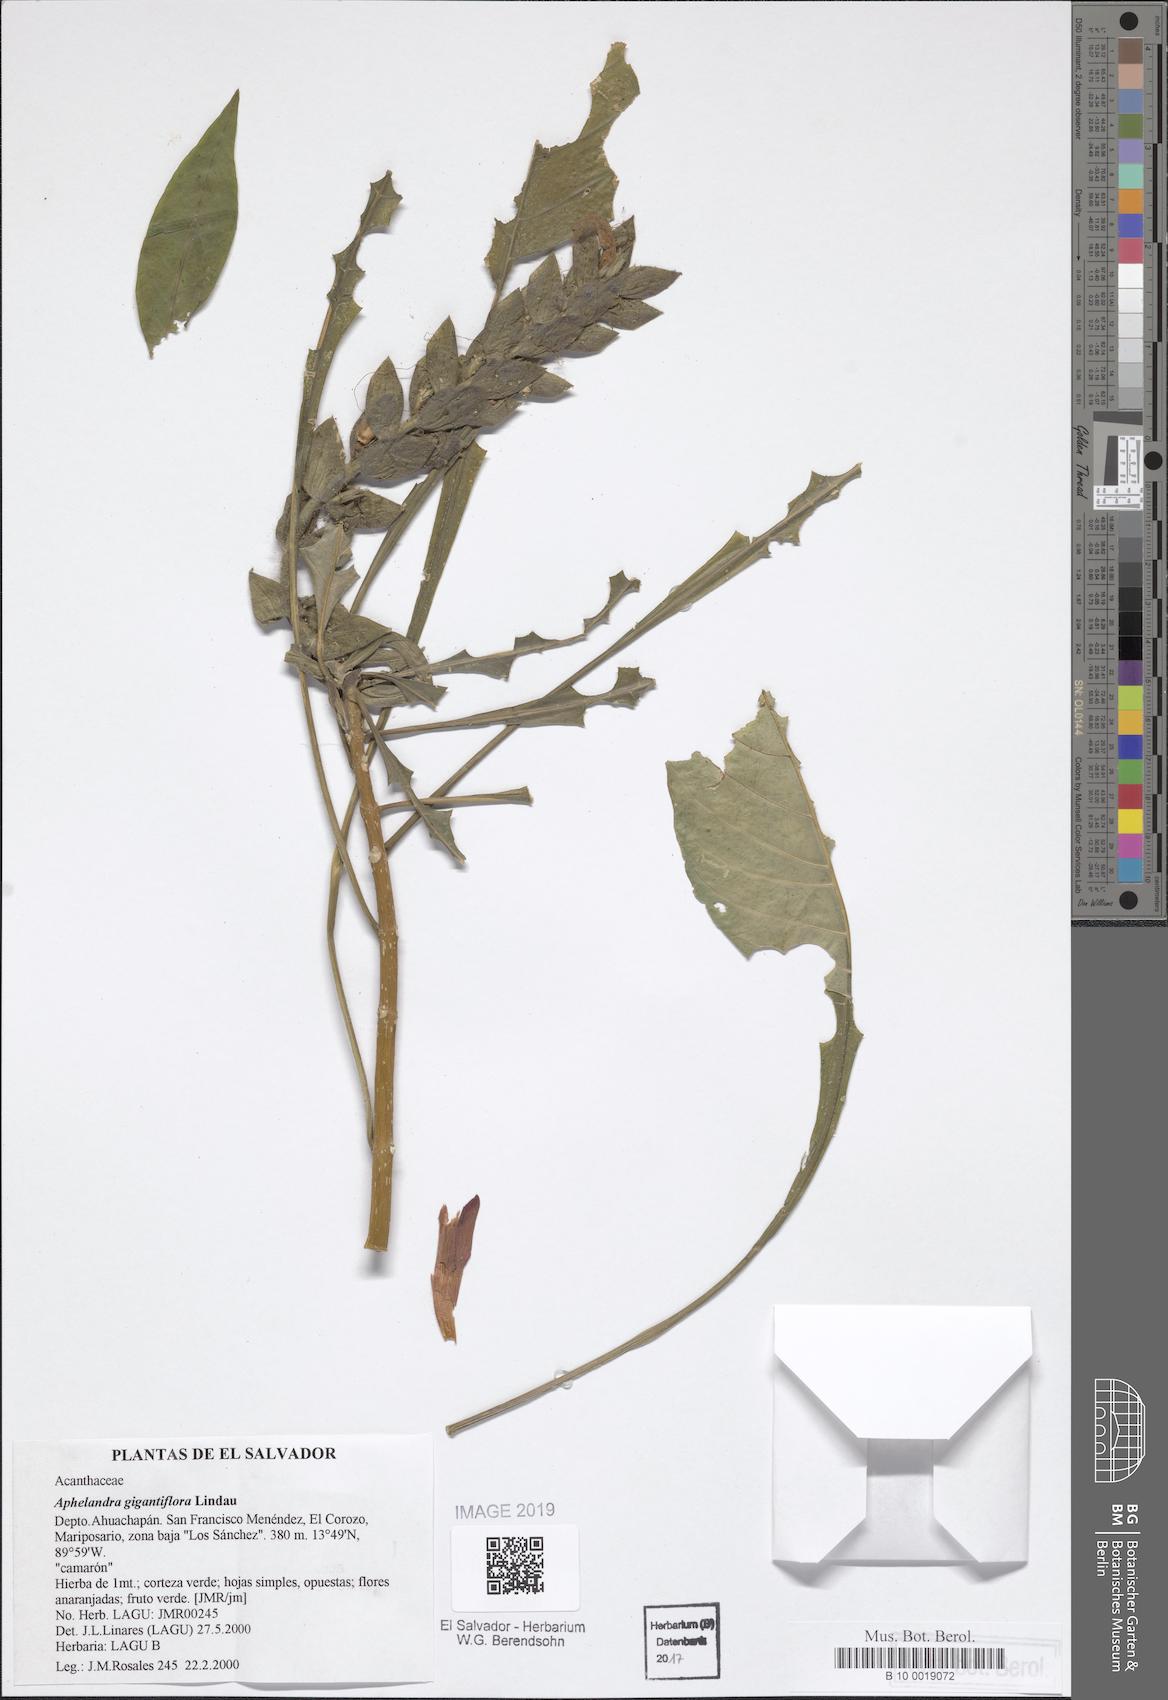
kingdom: Plantae
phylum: Tracheophyta
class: Magnoliopsida
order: Lamiales
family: Acanthaceae
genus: Aphelandra
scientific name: Aphelandra gigantiflora
